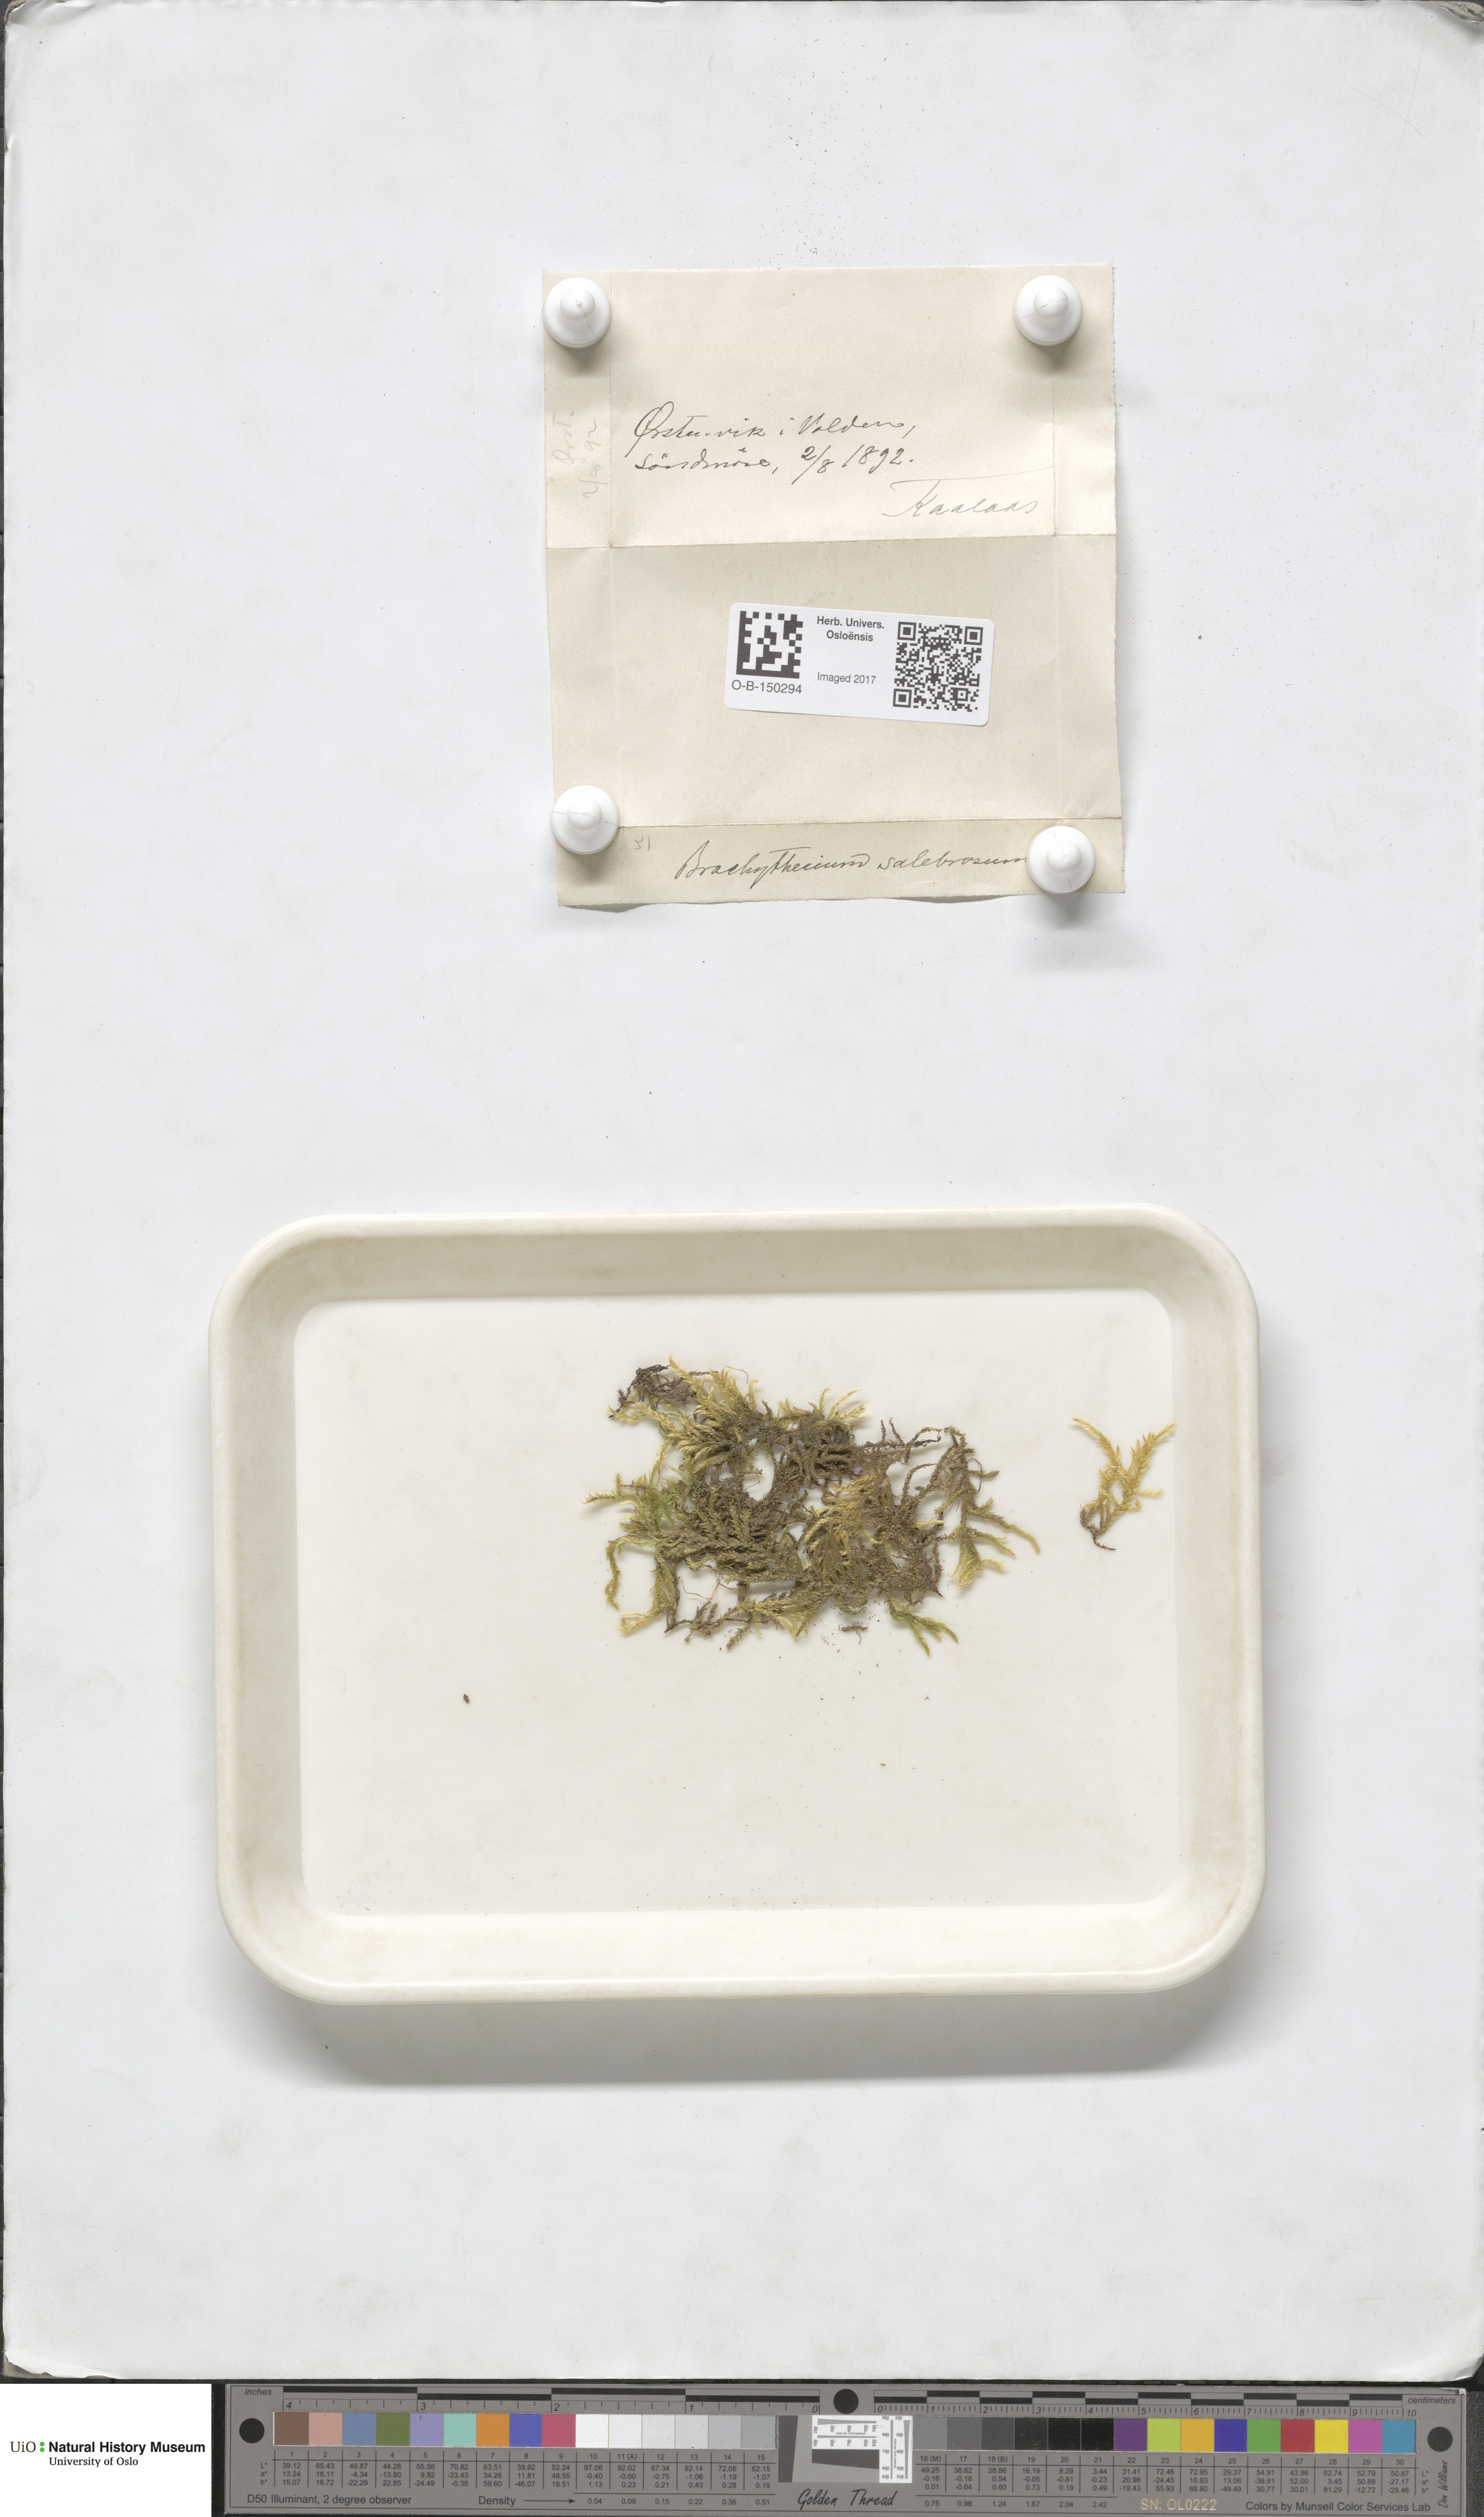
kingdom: Plantae
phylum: Bryophyta
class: Bryopsida
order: Hypnales
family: Brachytheciaceae
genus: Brachythecium
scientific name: Brachythecium salebrosum
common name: Smooth-stalk feather-moss
